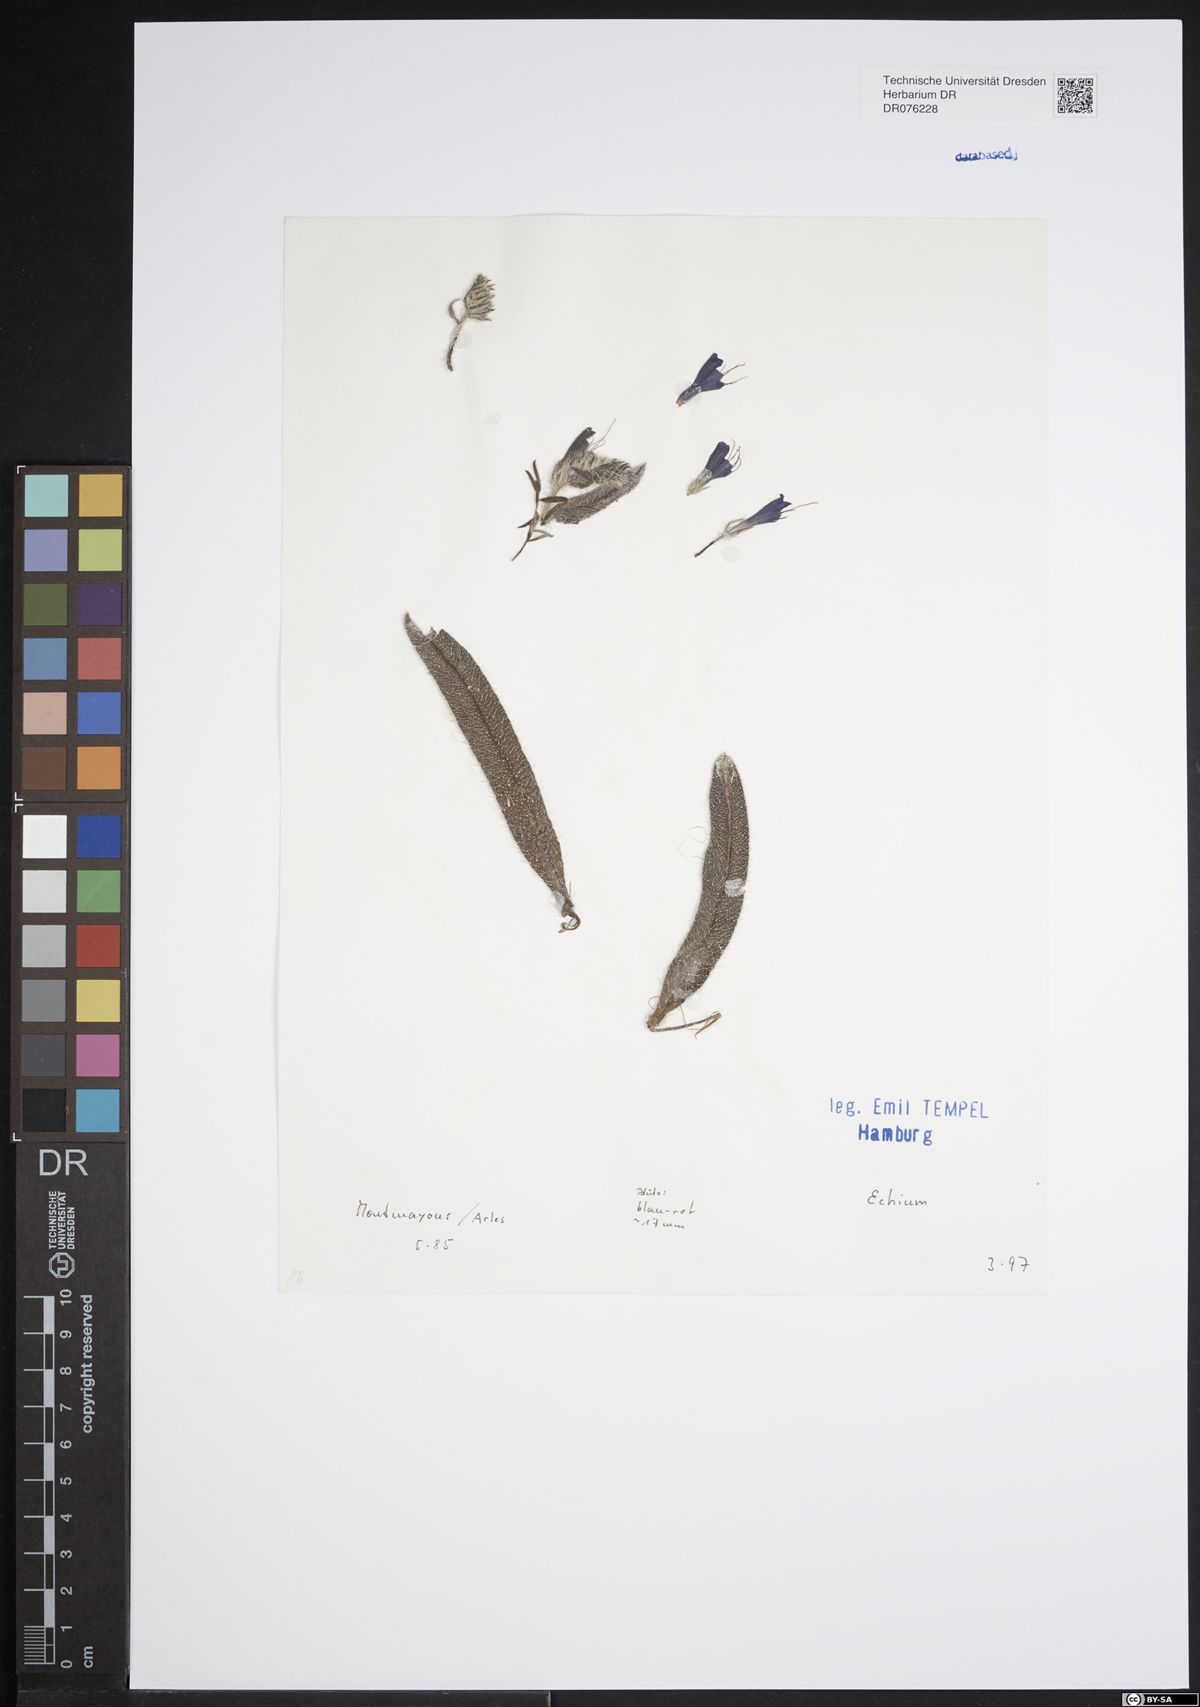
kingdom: Plantae
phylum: Tracheophyta
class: Magnoliopsida
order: Boraginales
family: Boraginaceae
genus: Echium
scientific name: Echium
